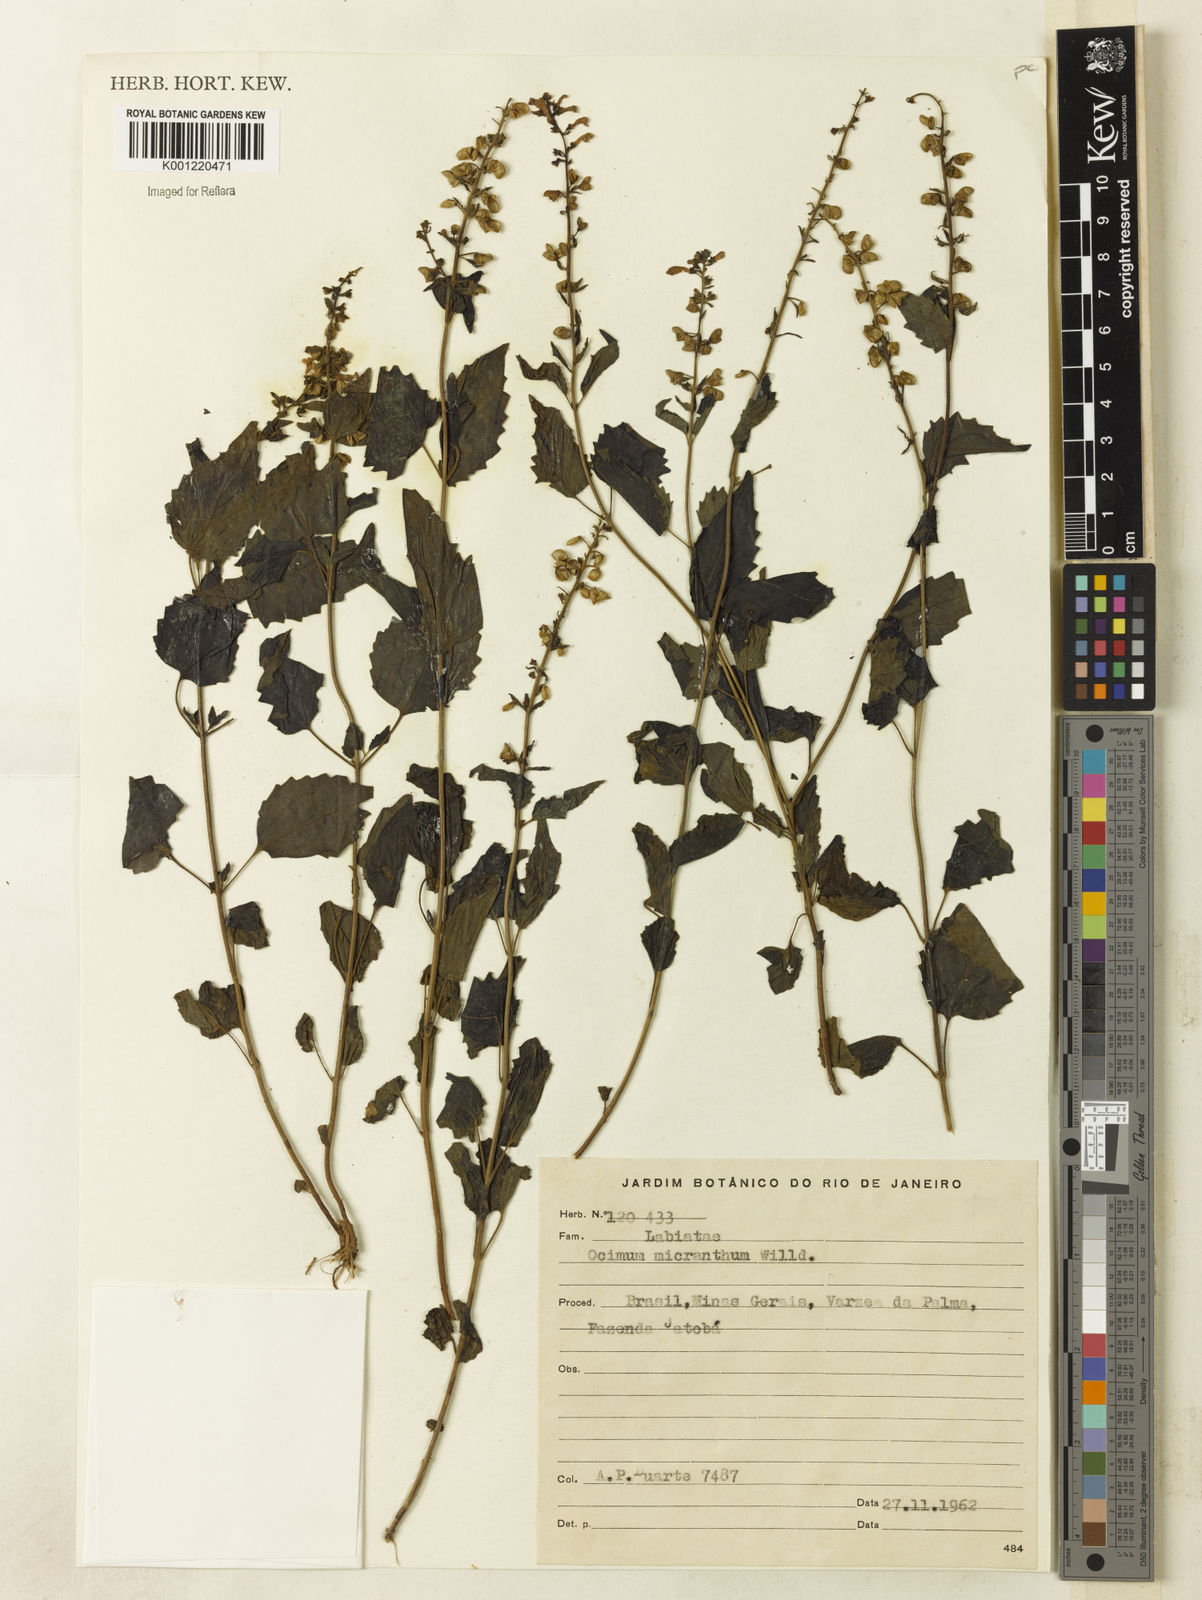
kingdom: Plantae
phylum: Tracheophyta
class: Magnoliopsida
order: Lamiales
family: Lamiaceae
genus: Scutellaria
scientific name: Scutellaria uliginosa
